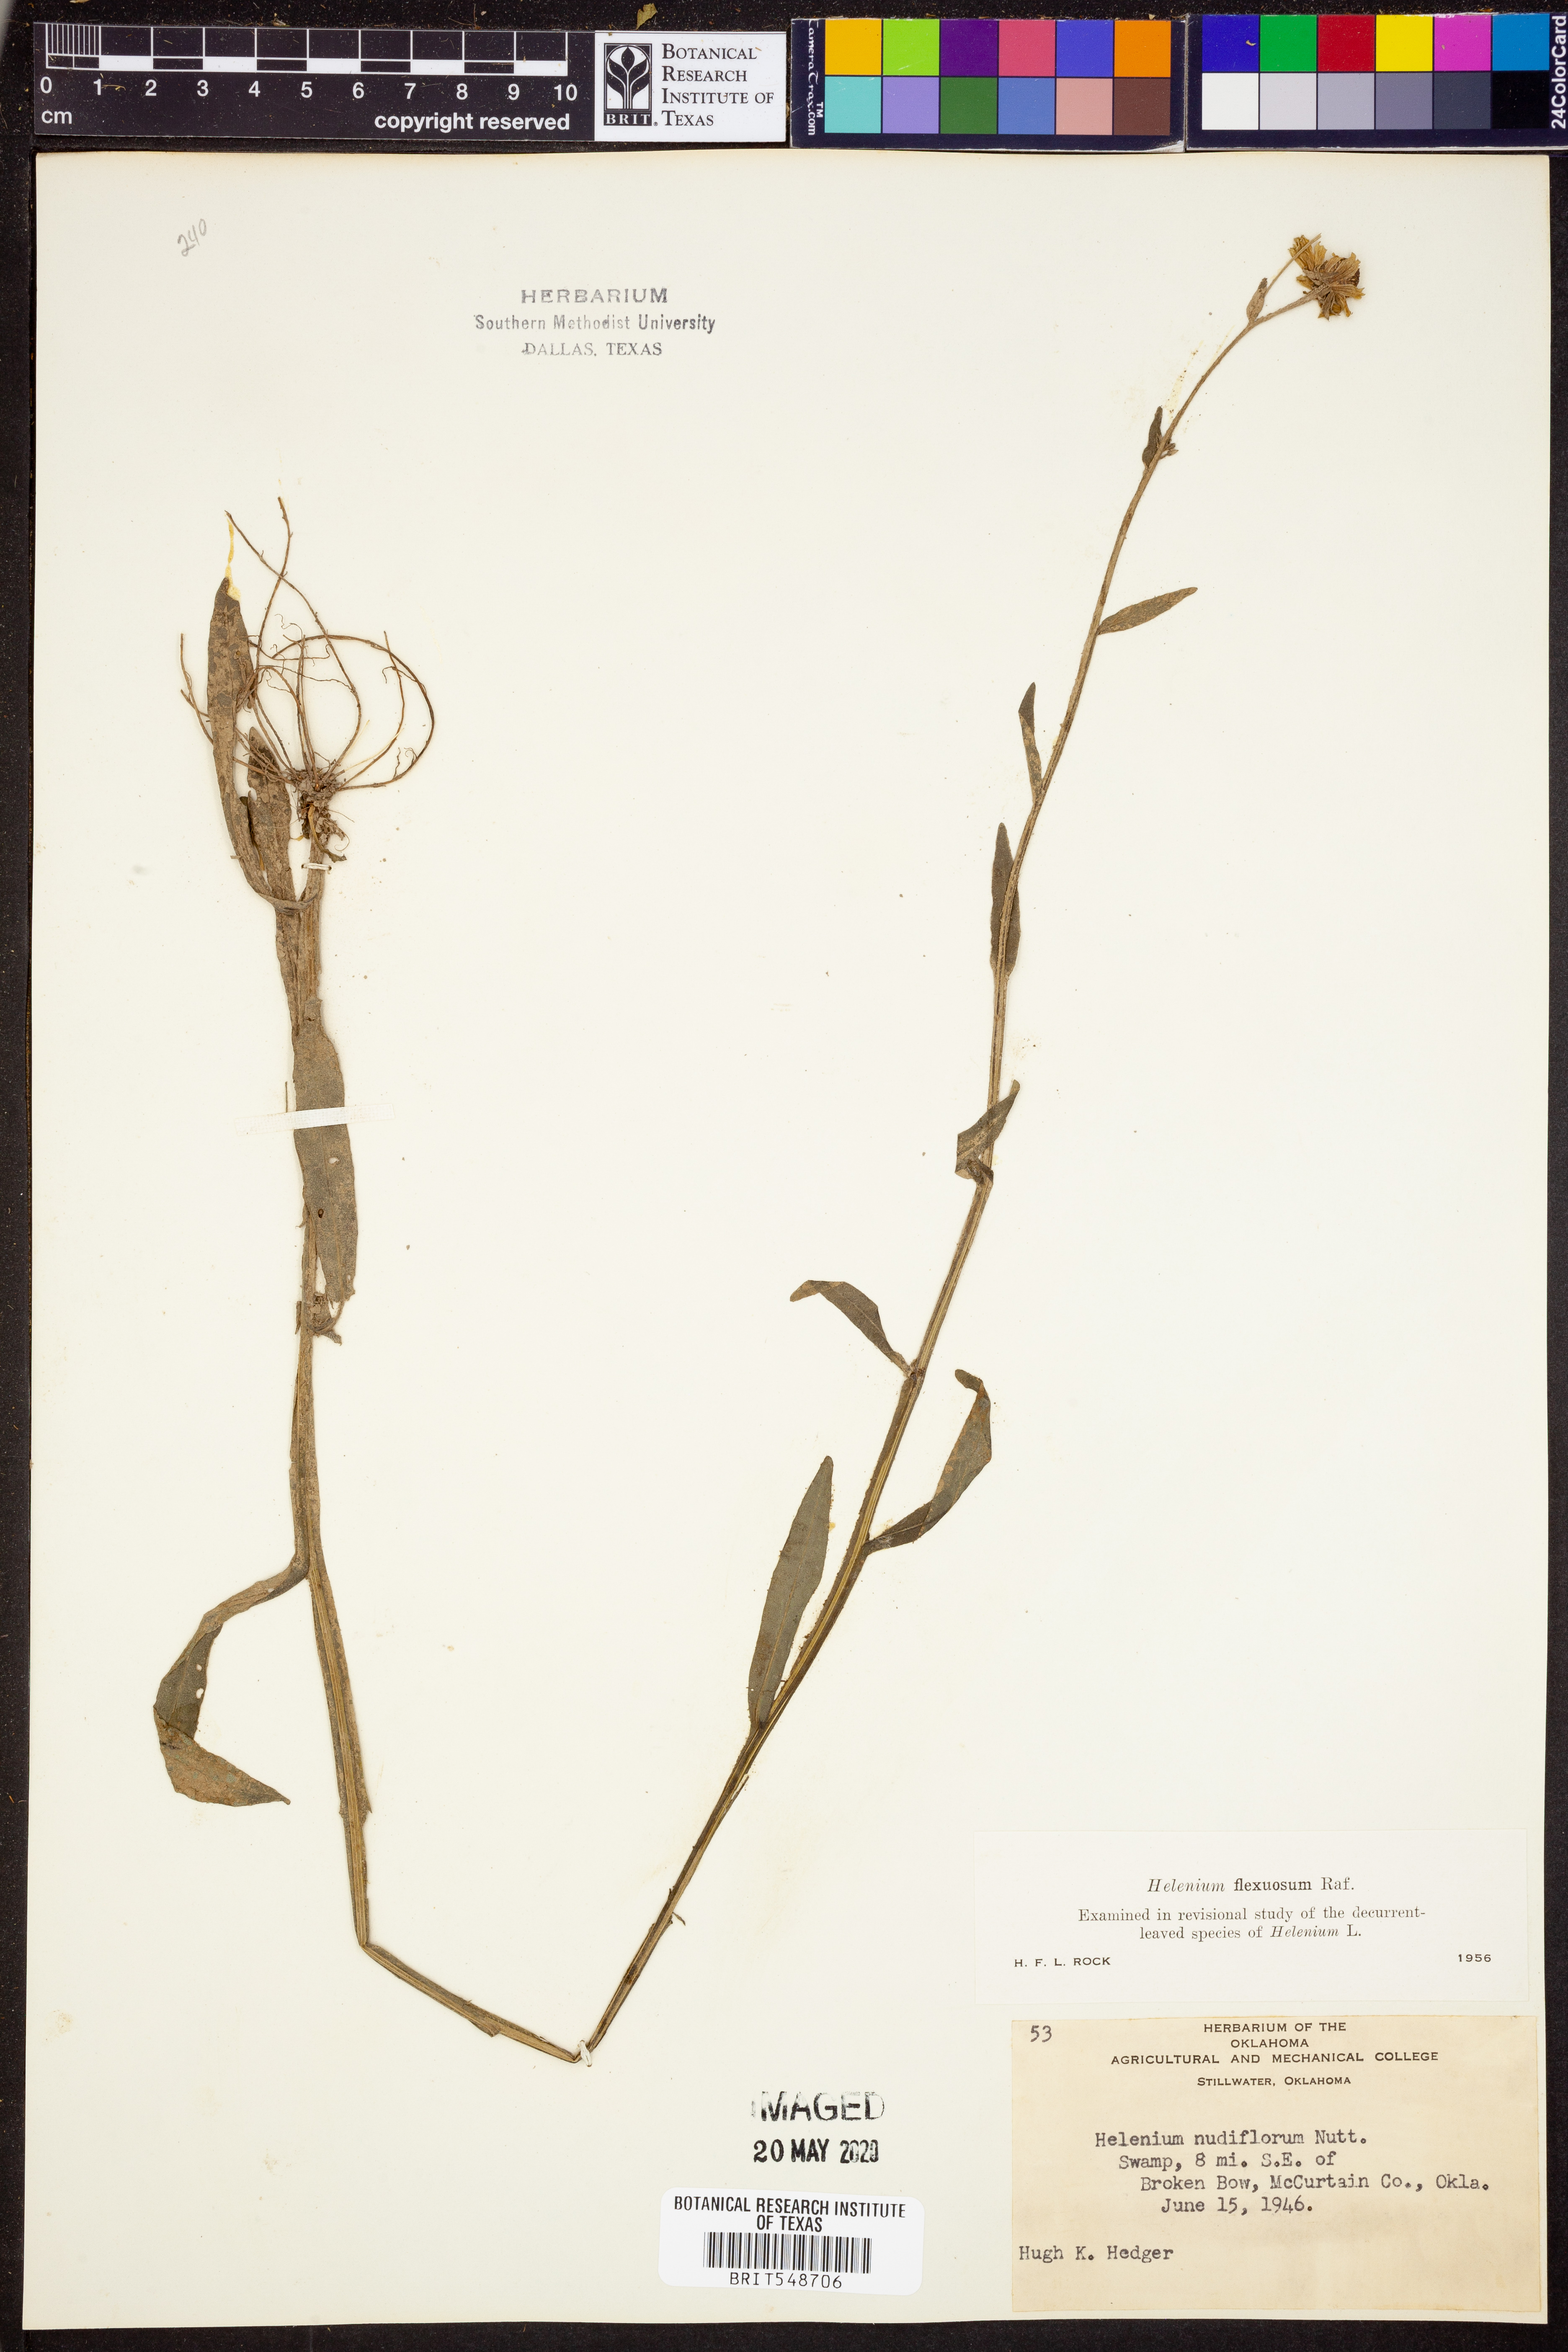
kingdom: Plantae
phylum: Tracheophyta
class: Magnoliopsida
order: Asterales
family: Asteraceae
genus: Helenium
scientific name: Helenium flexuosum
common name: Naked-flowered sneezeweed
